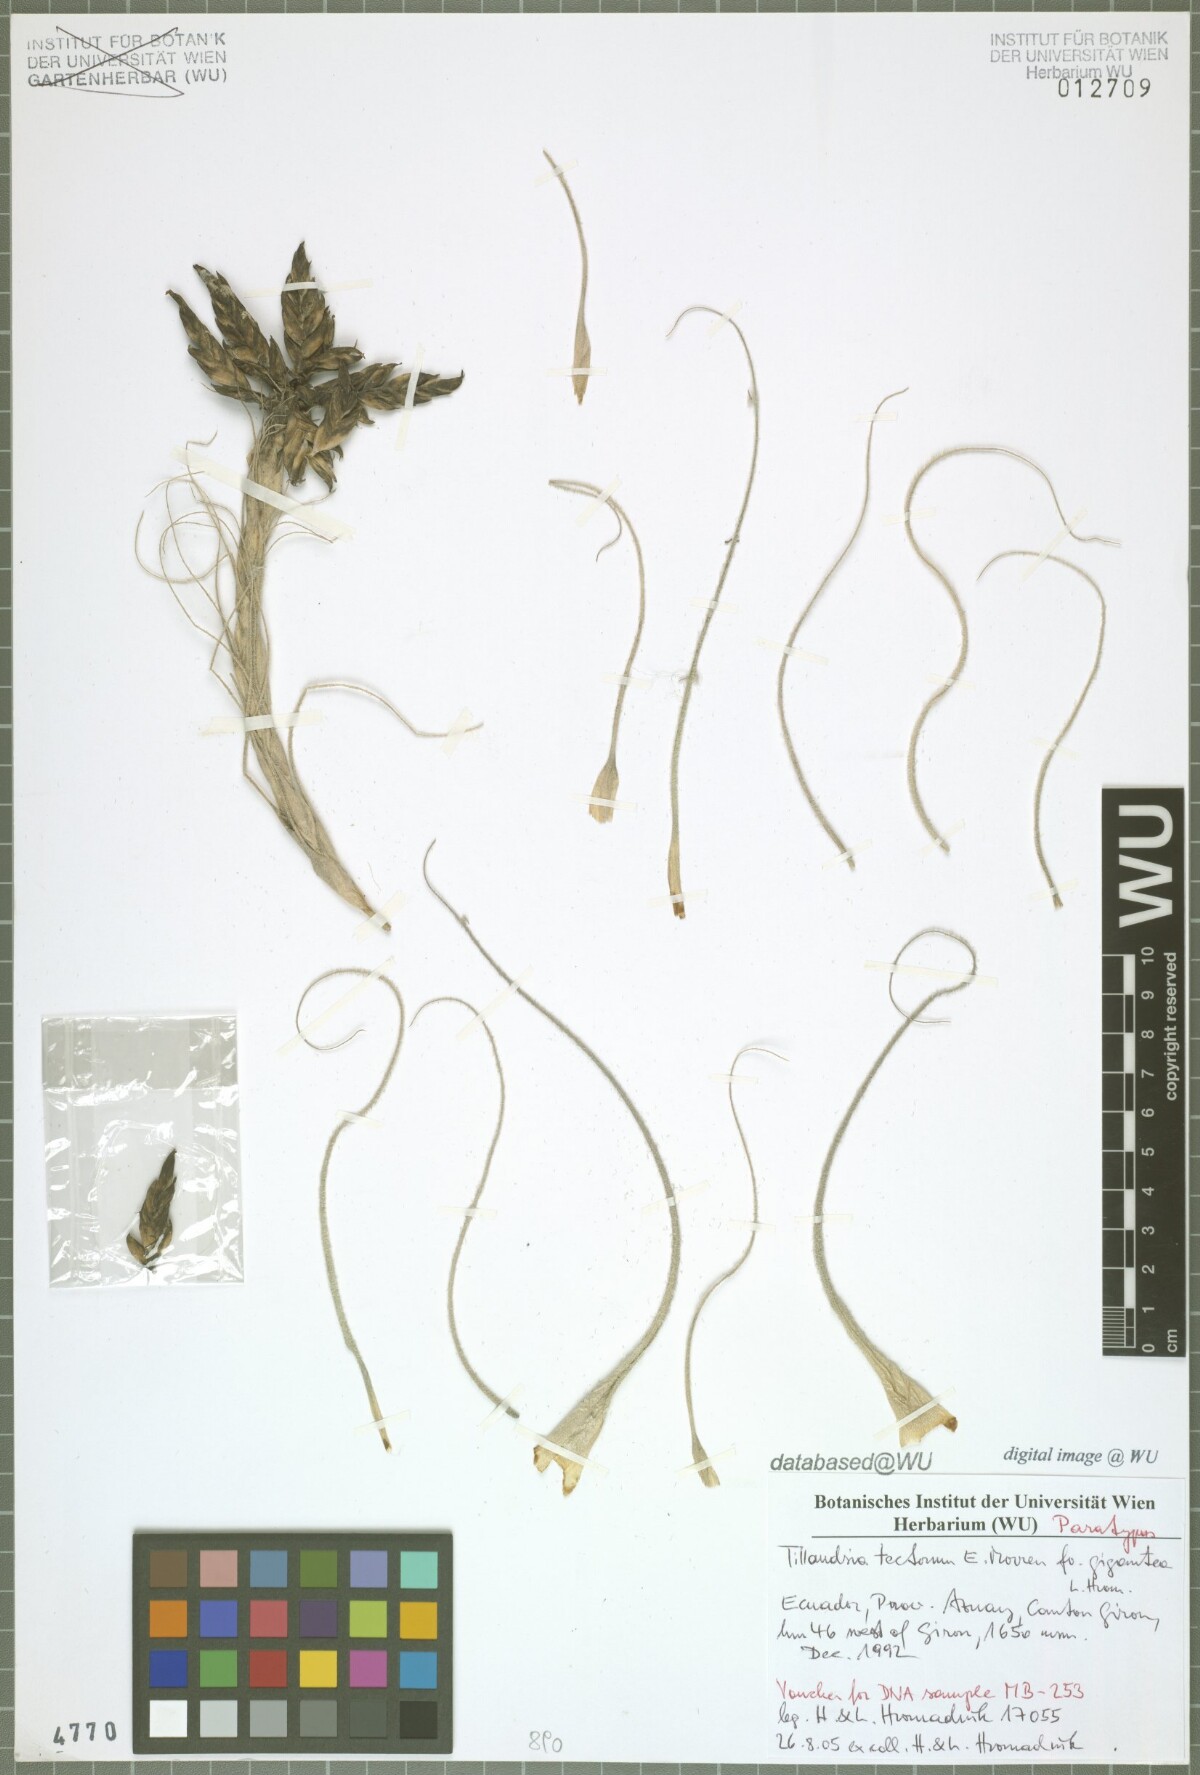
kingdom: Plantae
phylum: Tracheophyta
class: Liliopsida
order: Poales
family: Bromeliaceae
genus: Tillandsia
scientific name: Tillandsia tectorum
